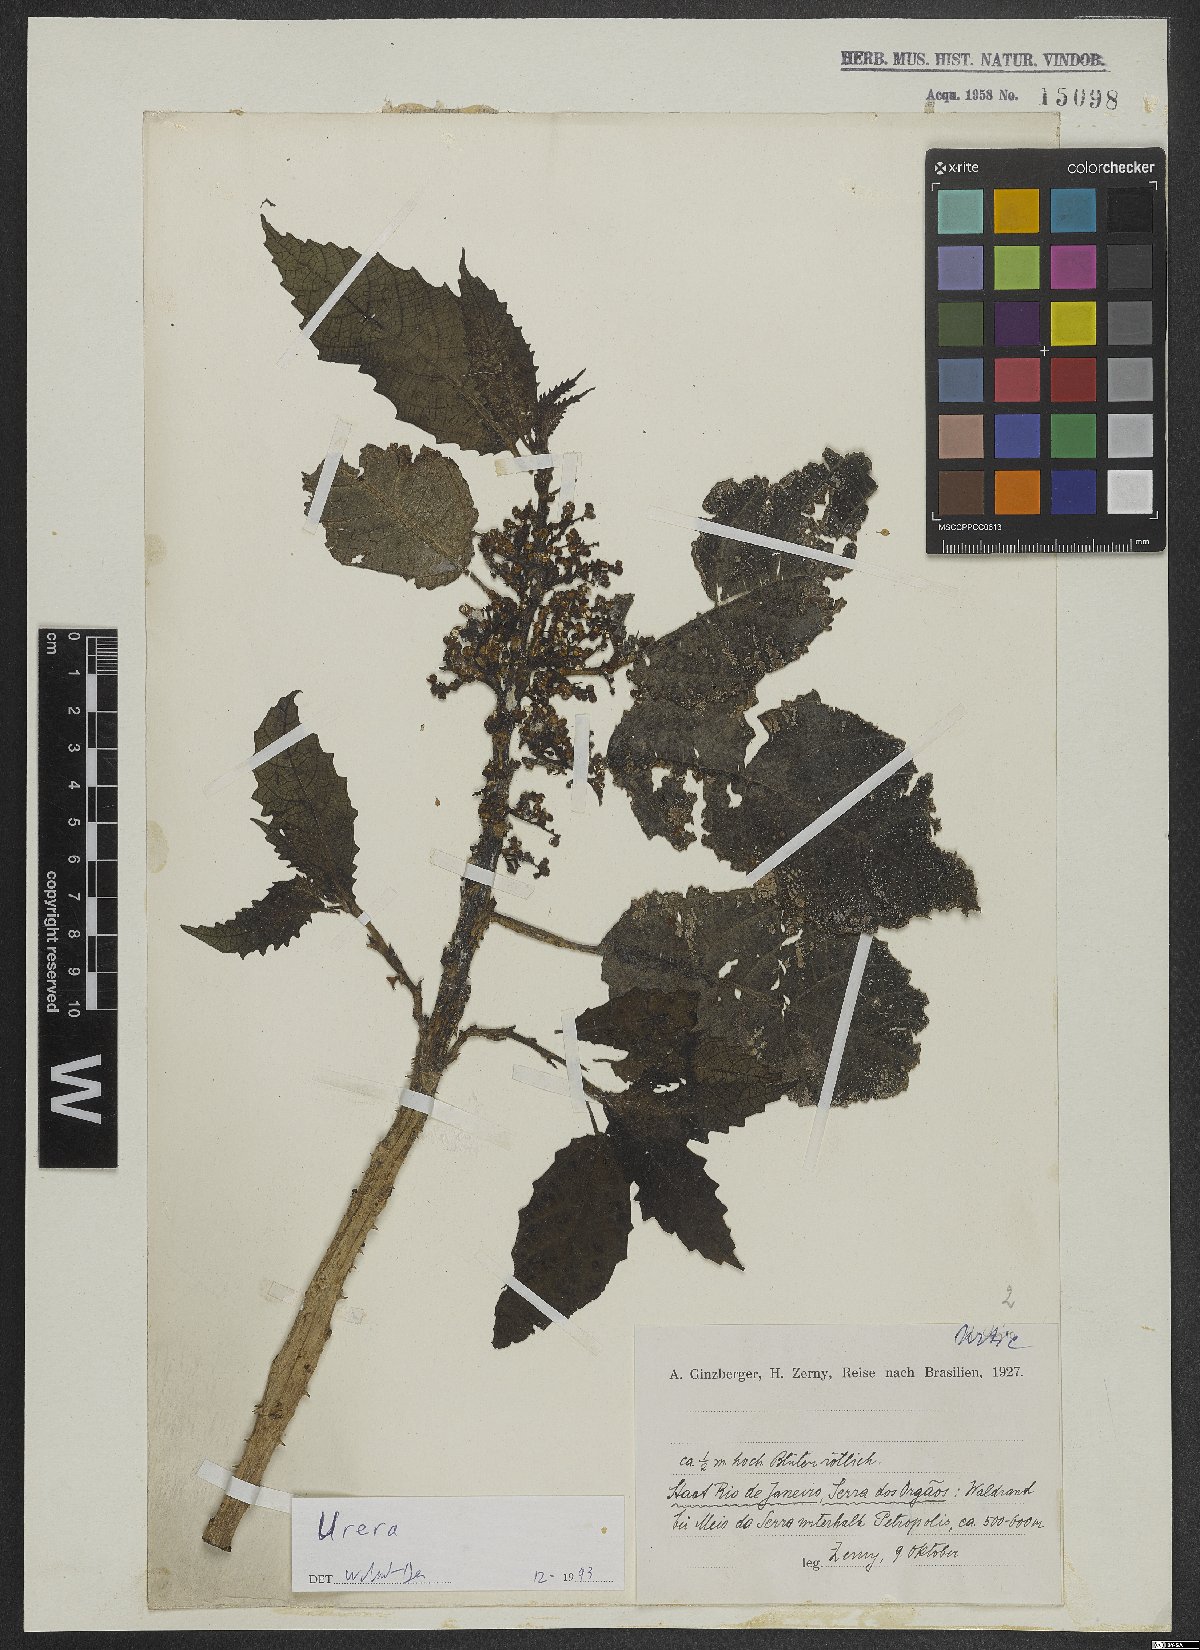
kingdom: Plantae
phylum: Tracheophyta
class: Magnoliopsida
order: Rosales
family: Urticaceae
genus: Urera
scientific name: Urera
